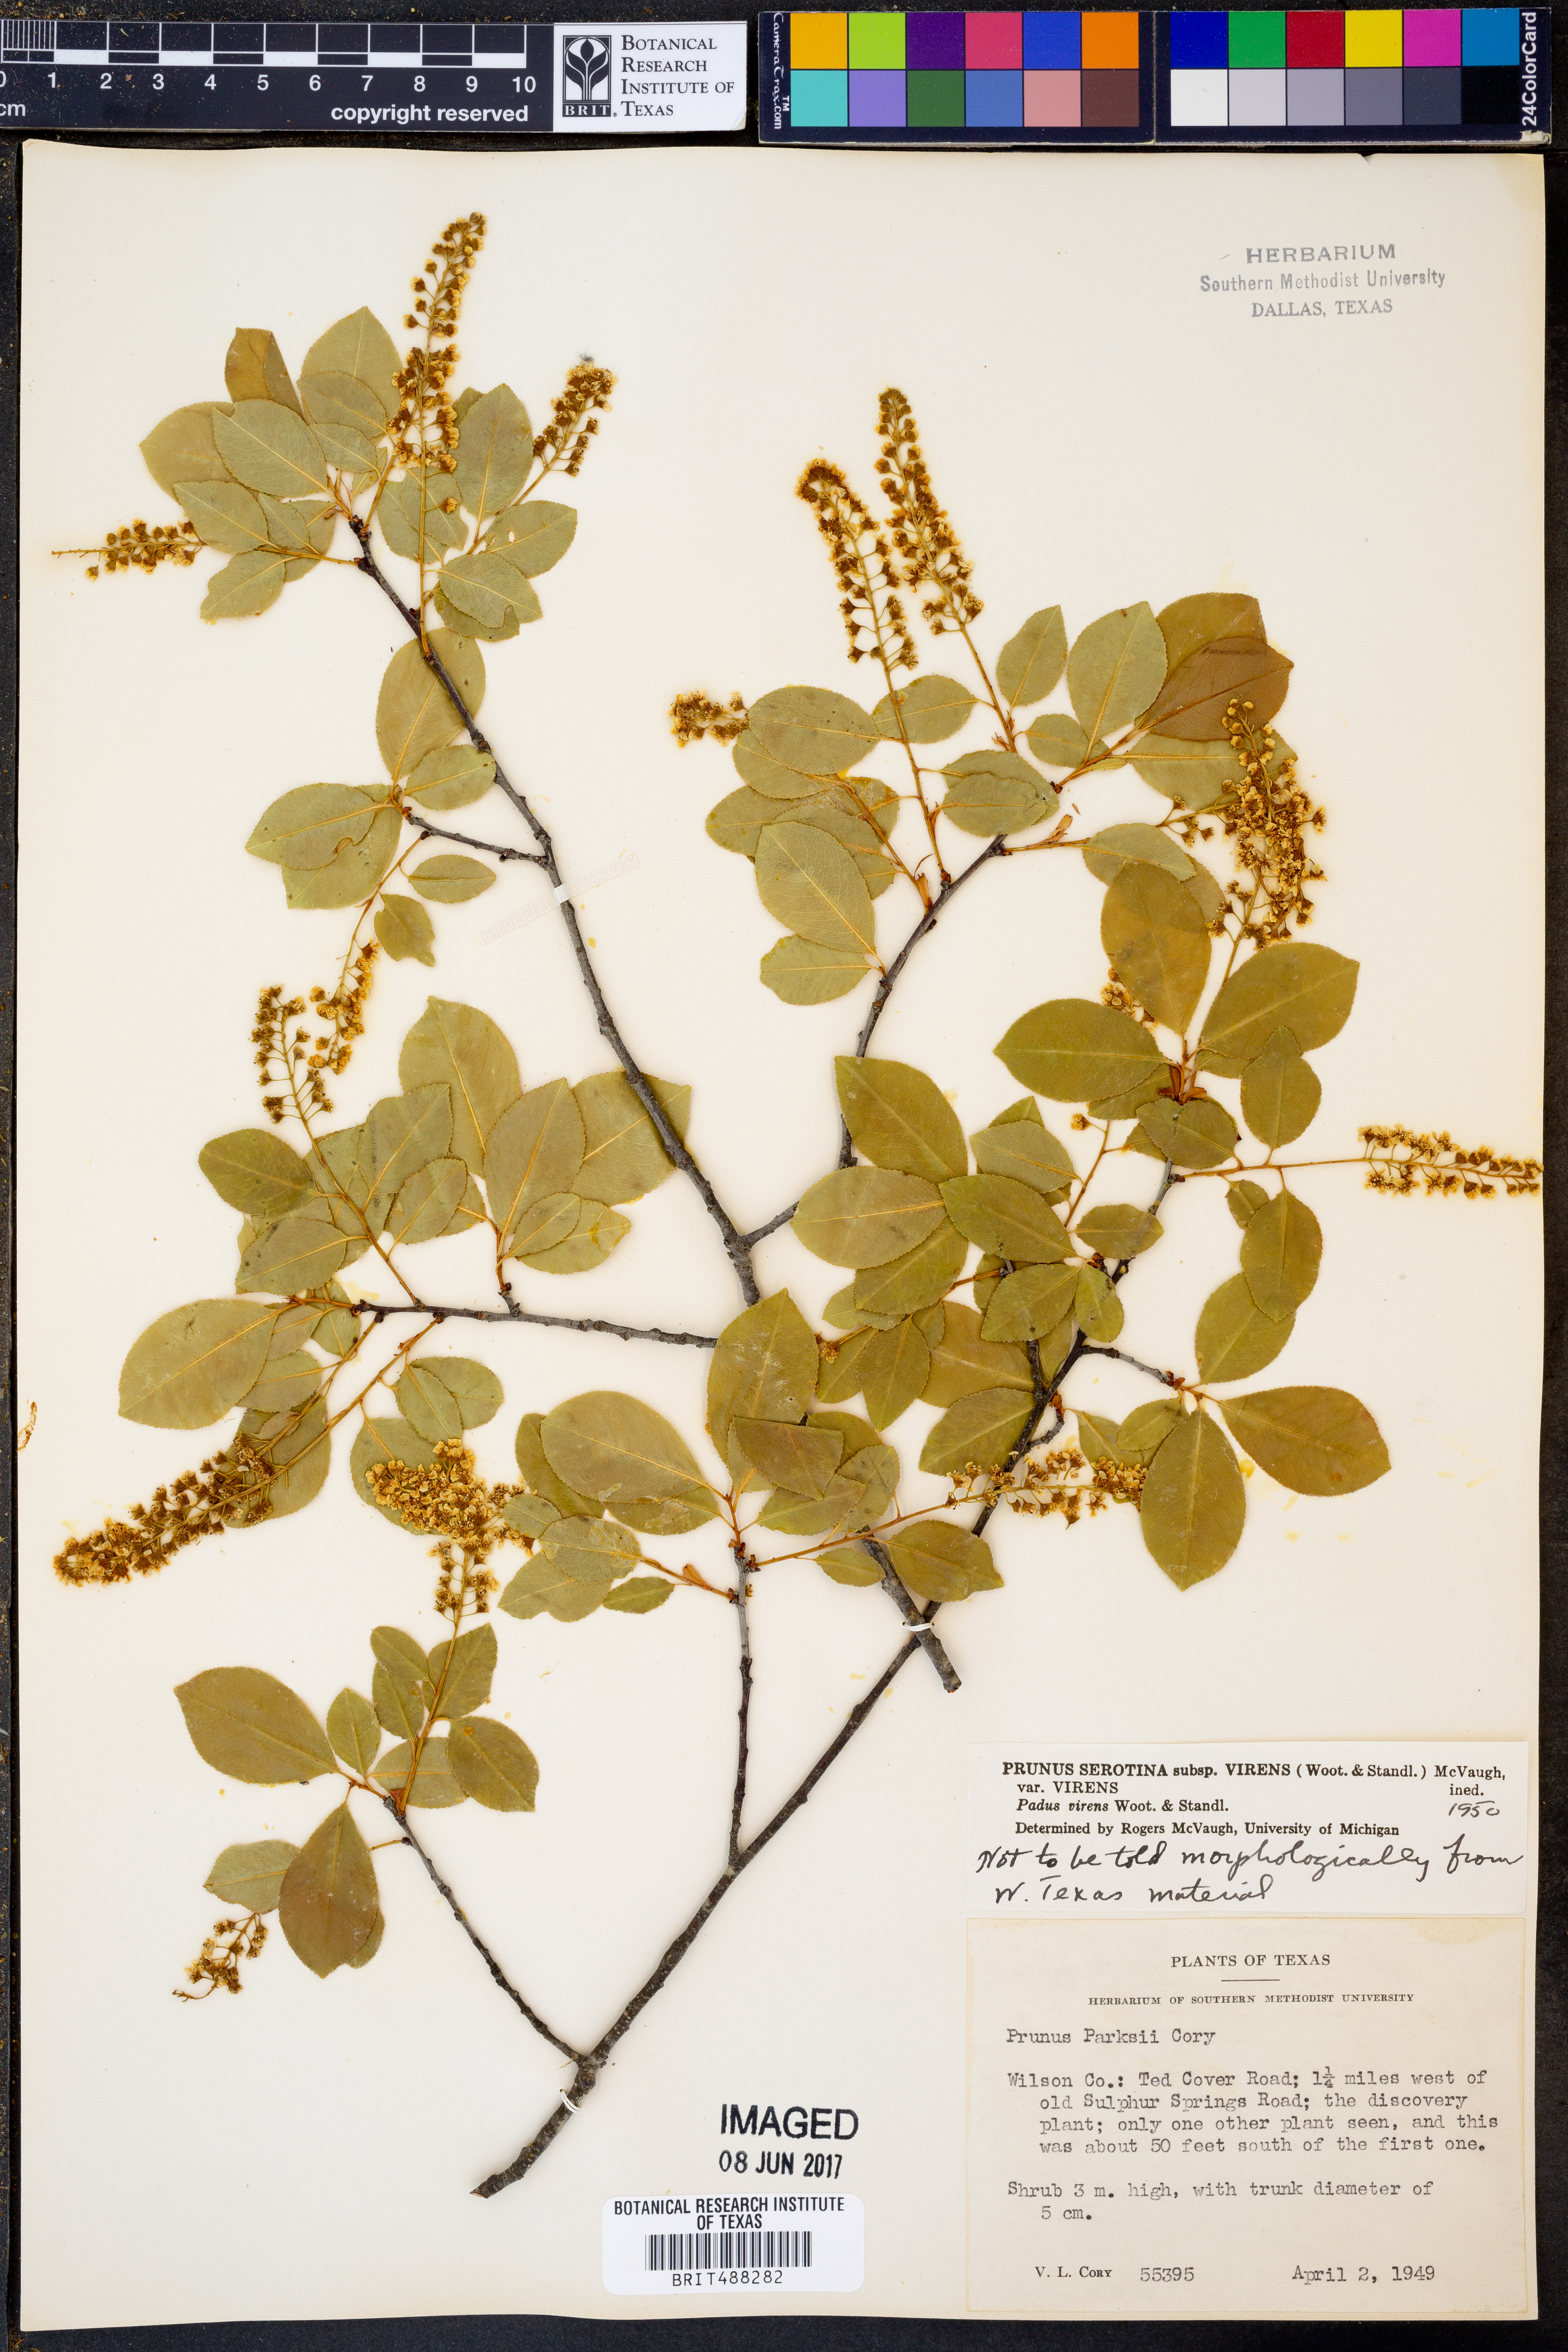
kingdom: Plantae
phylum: Tracheophyta
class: Magnoliopsida
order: Rosales
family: Rosaceae
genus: Prunus
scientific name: Prunus serotina
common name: Black cherry
